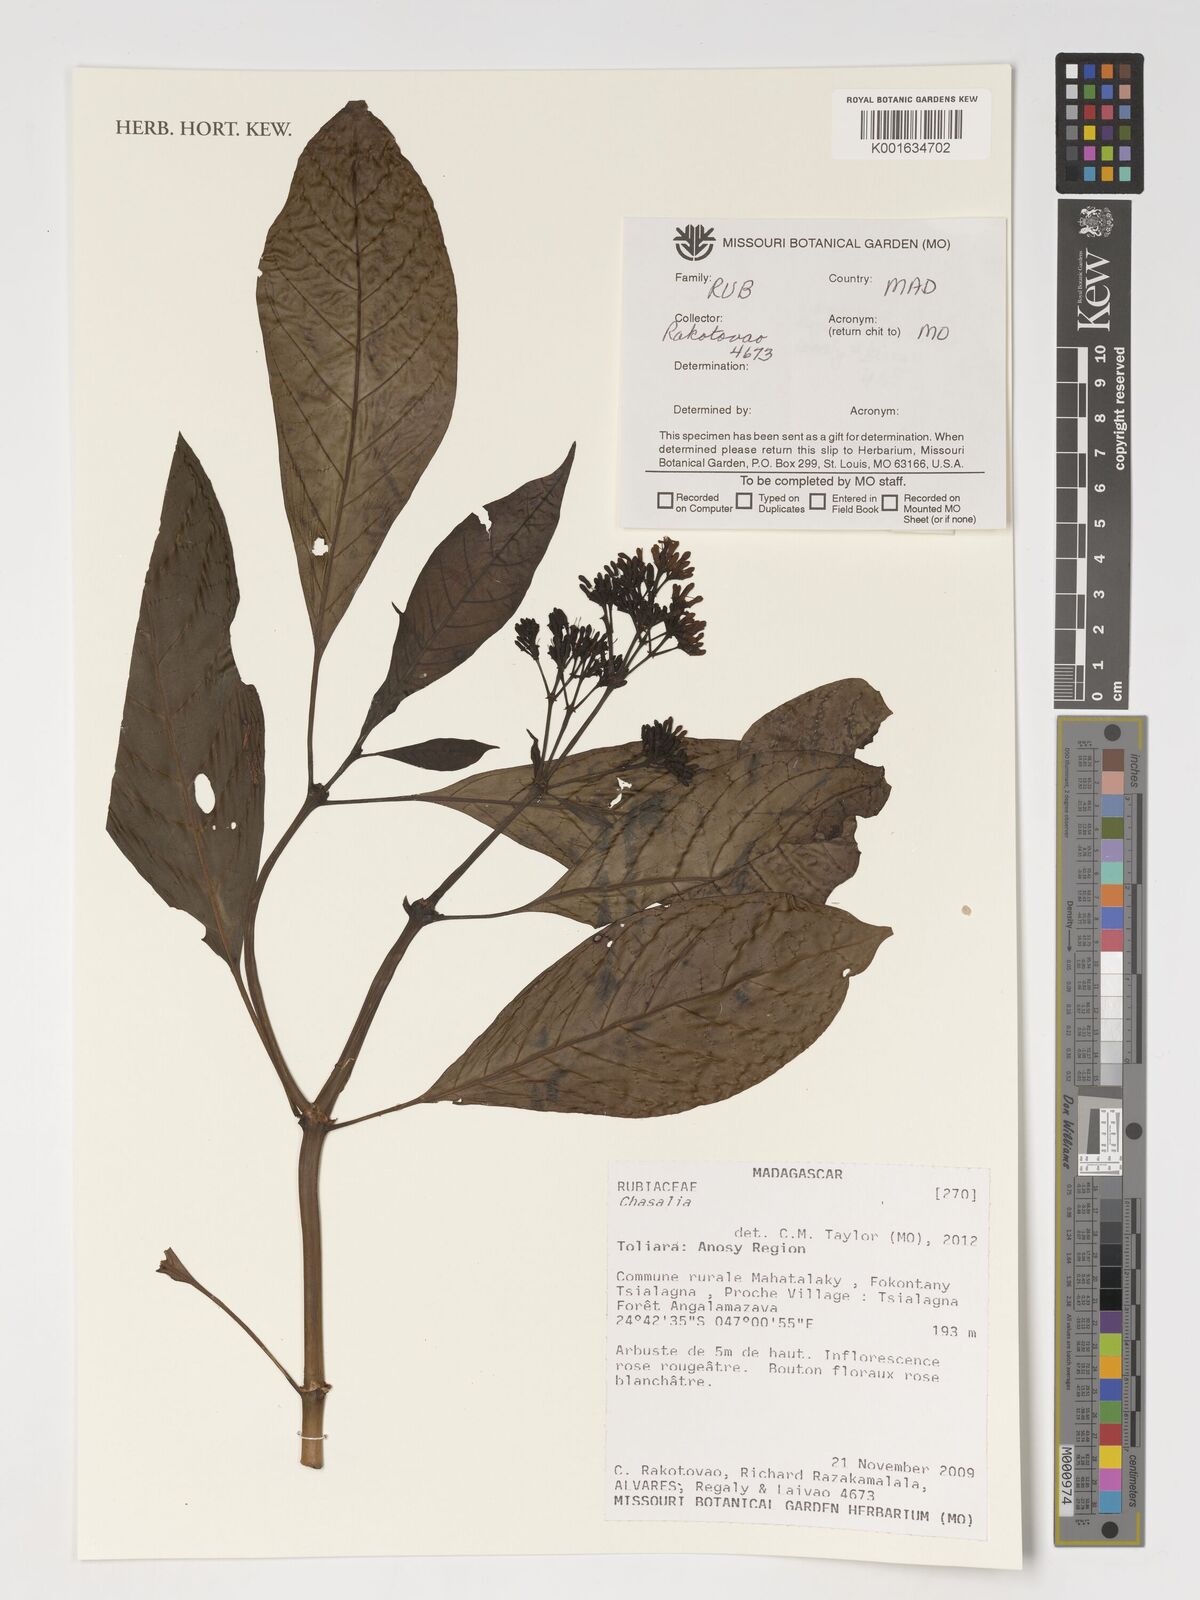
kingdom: Plantae
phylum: Tracheophyta
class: Magnoliopsida
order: Gentianales
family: Rubiaceae
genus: Chassalia
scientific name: Chassalia
